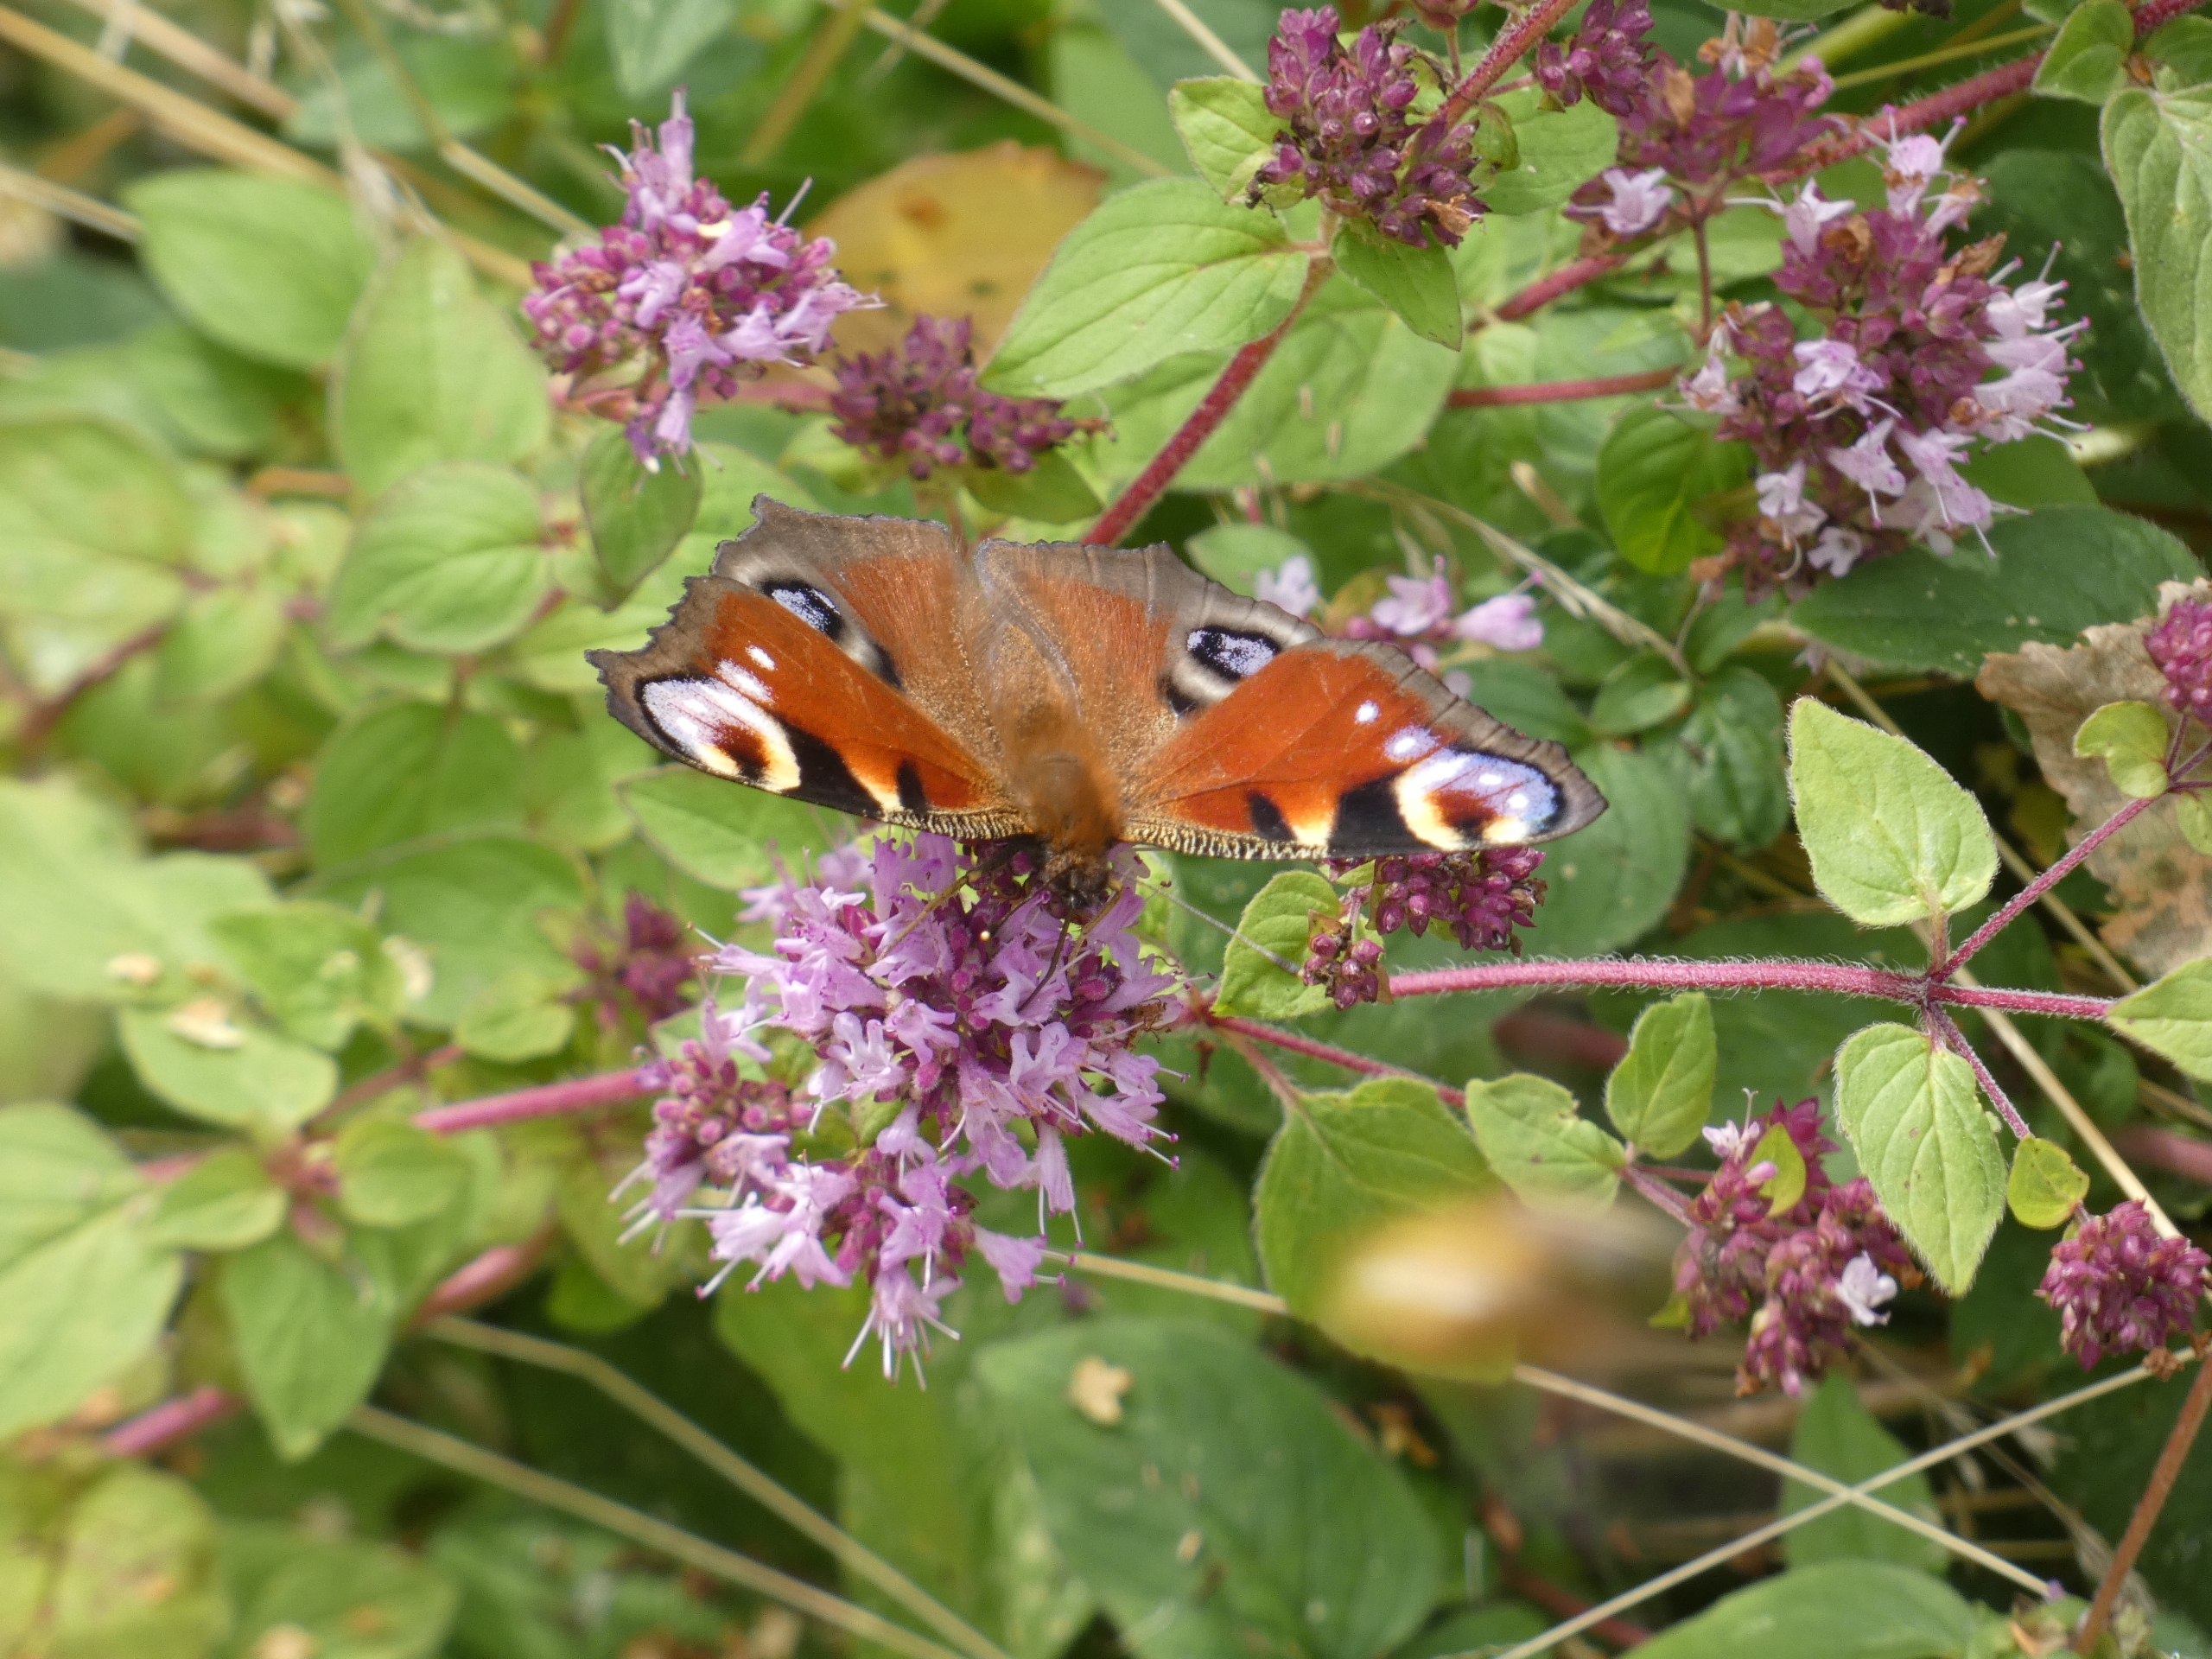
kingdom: Animalia
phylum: Arthropoda
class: Insecta
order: Lepidoptera
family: Nymphalidae
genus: Aglais
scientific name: Aglais io
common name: Dagpåfugleøje
